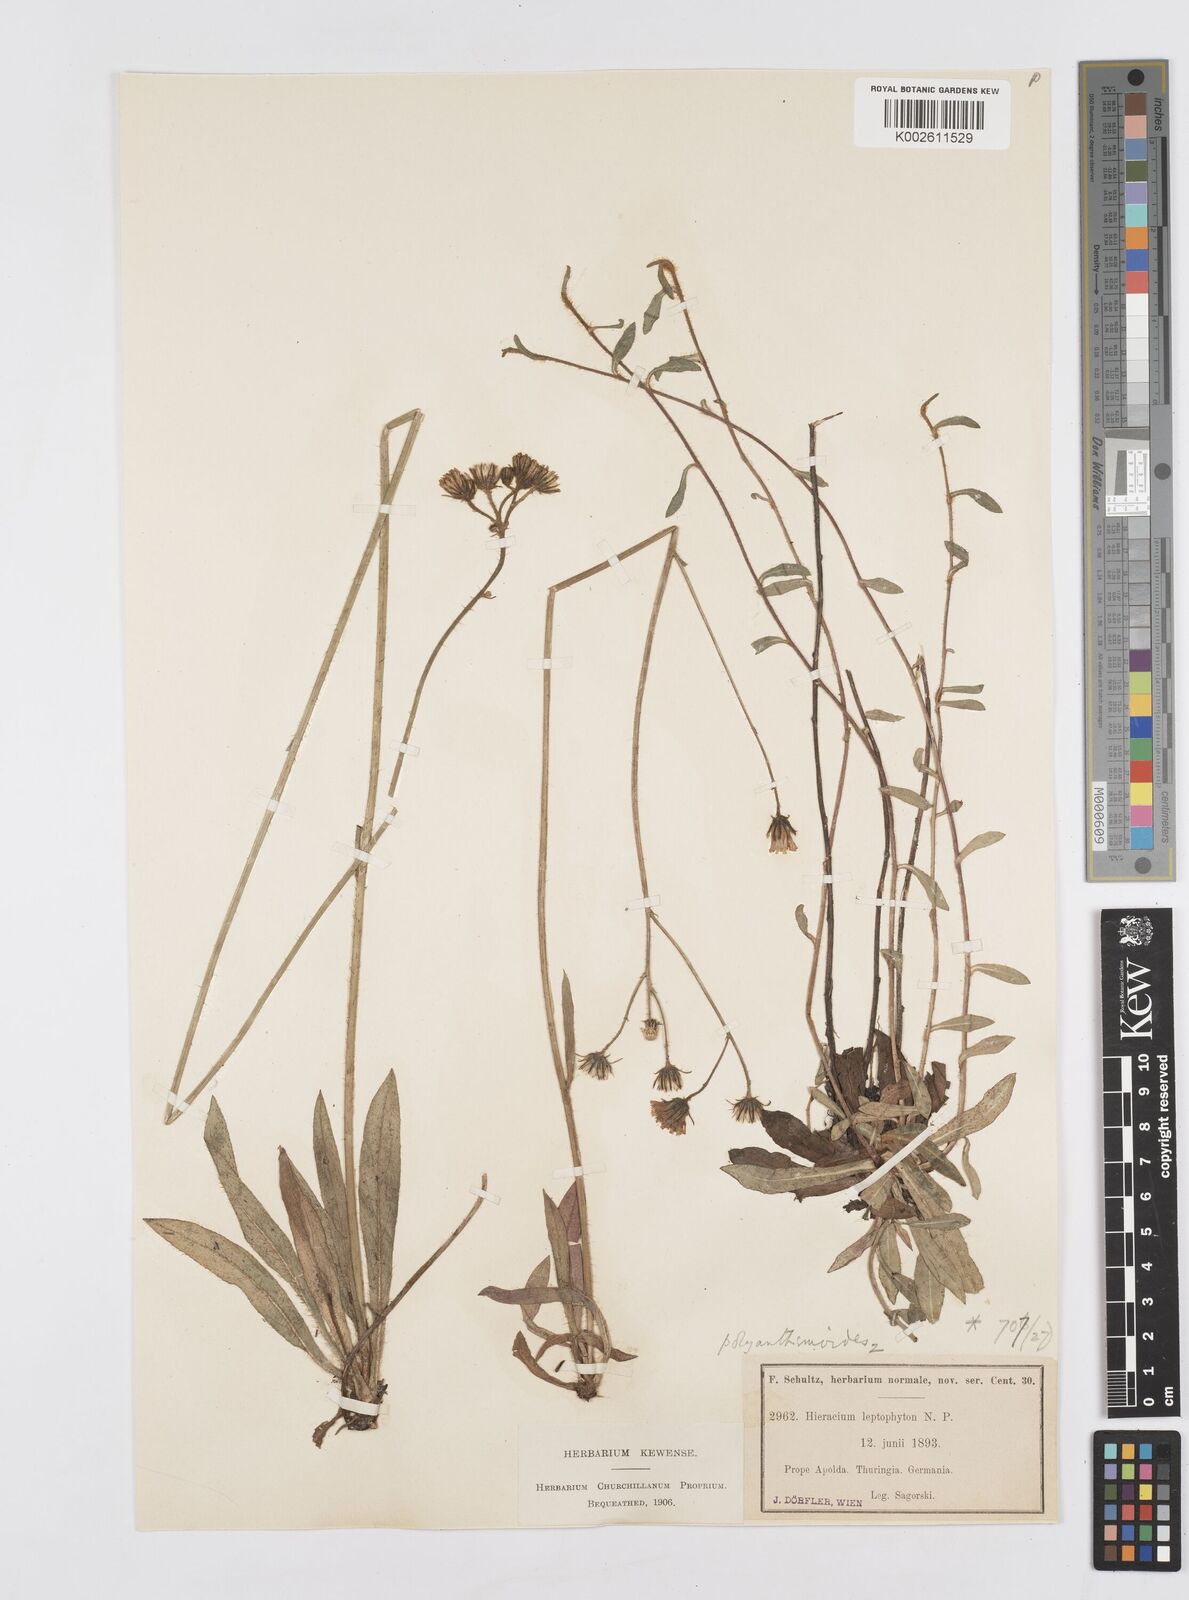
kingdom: Plantae
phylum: Tracheophyta
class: Magnoliopsida
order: Asterales
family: Asteraceae
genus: Pilosella
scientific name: Pilosella leptophyton
